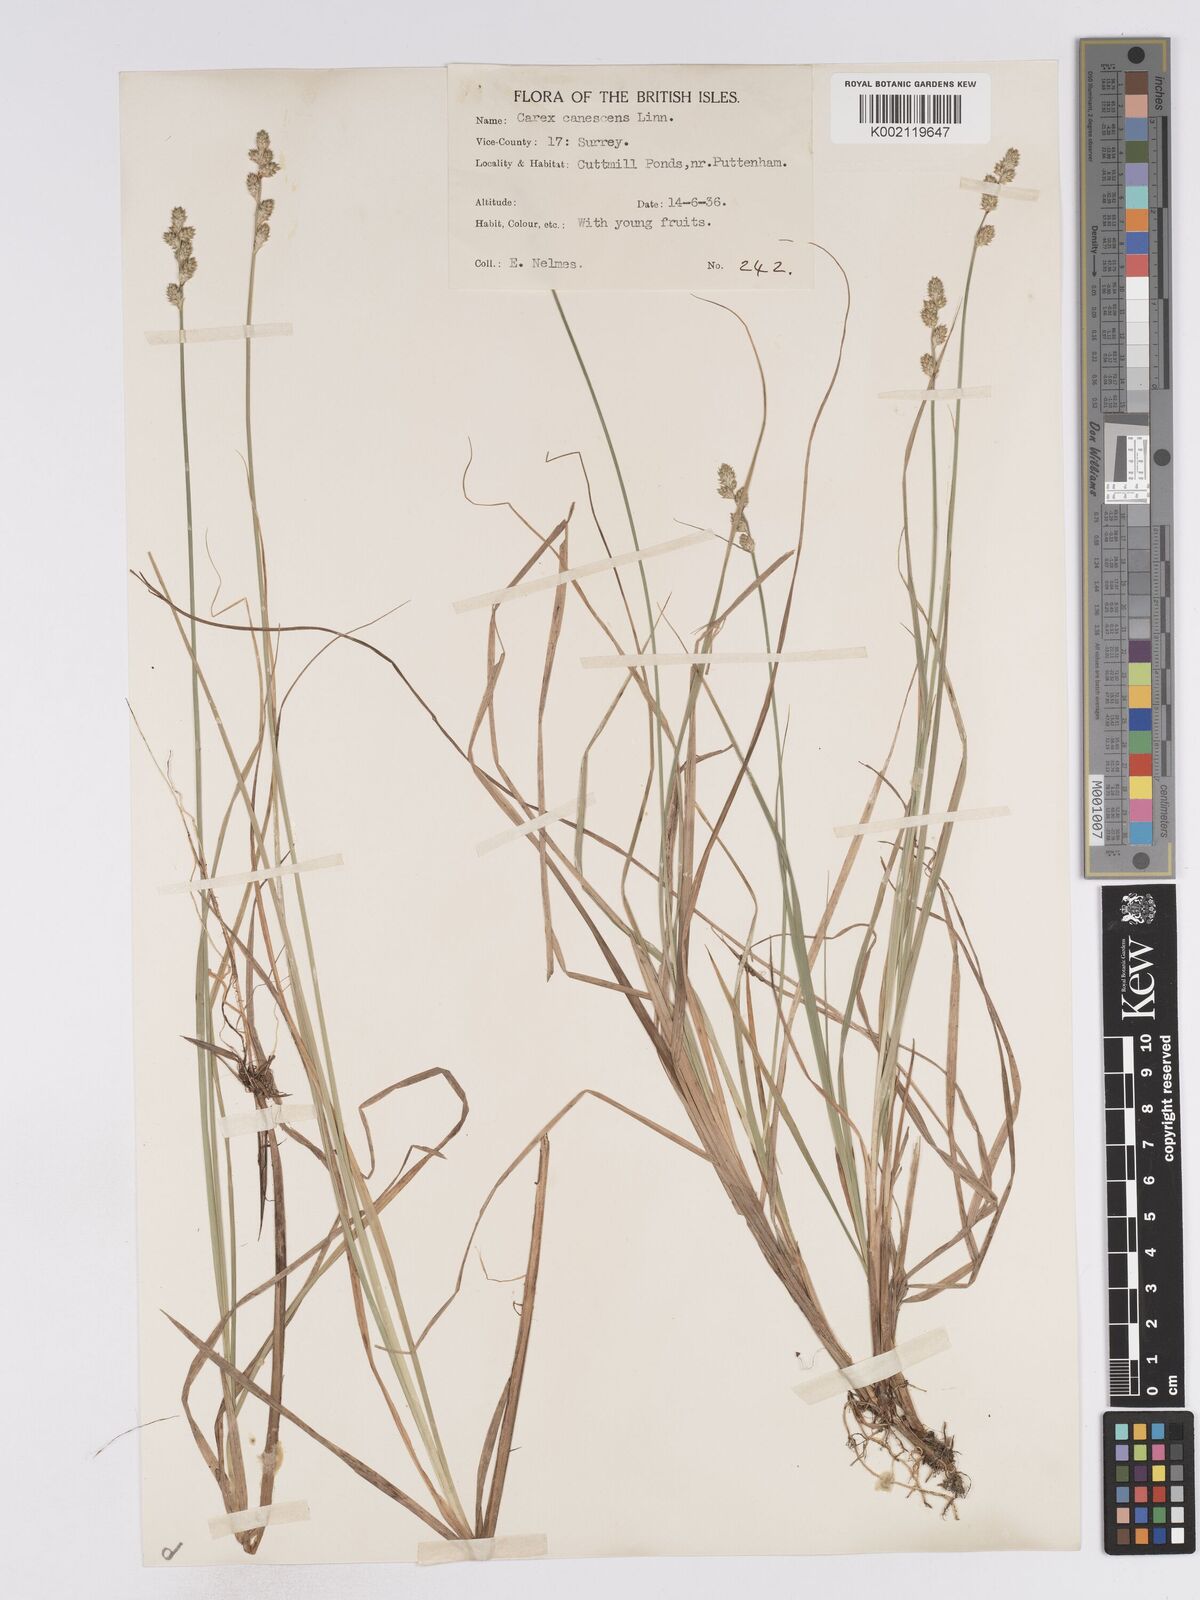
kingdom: Plantae
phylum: Tracheophyta
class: Liliopsida
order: Poales
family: Cyperaceae
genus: Carex
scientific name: Carex curta
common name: White sedge
